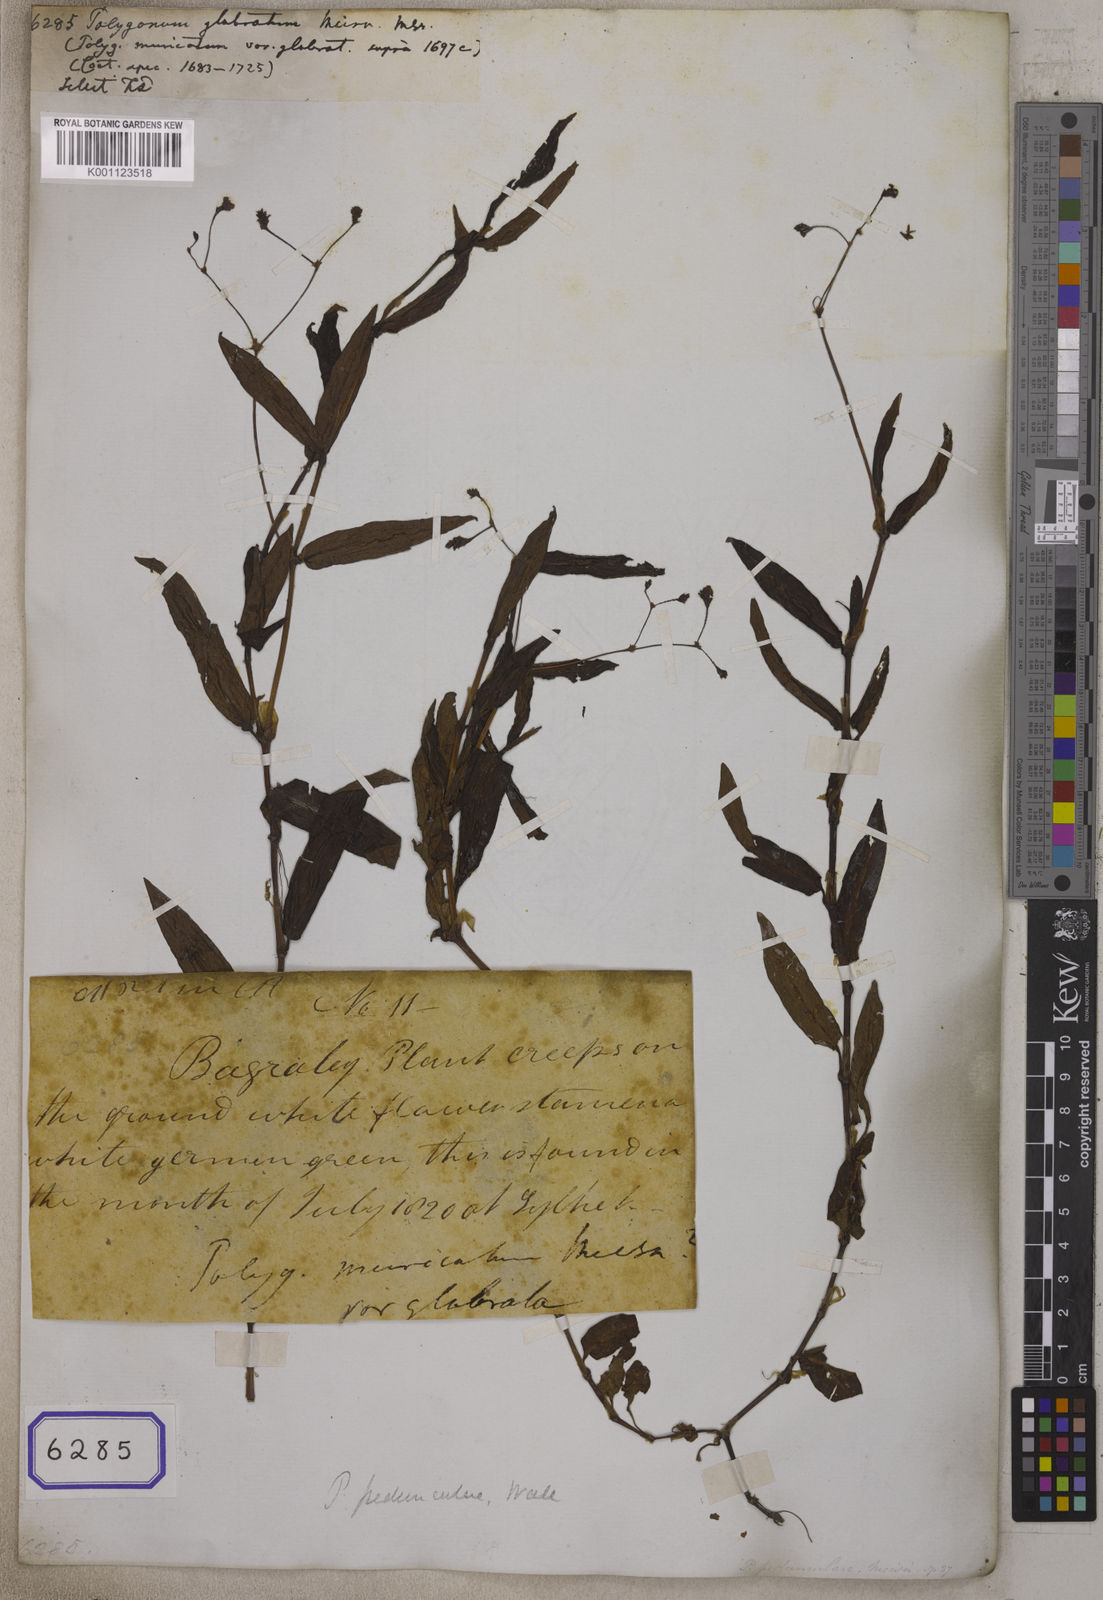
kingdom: Plantae
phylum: Tracheophyta
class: Magnoliopsida
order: Caryophyllales
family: Polygonaceae
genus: Persicaria
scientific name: Persicaria dichotoma
